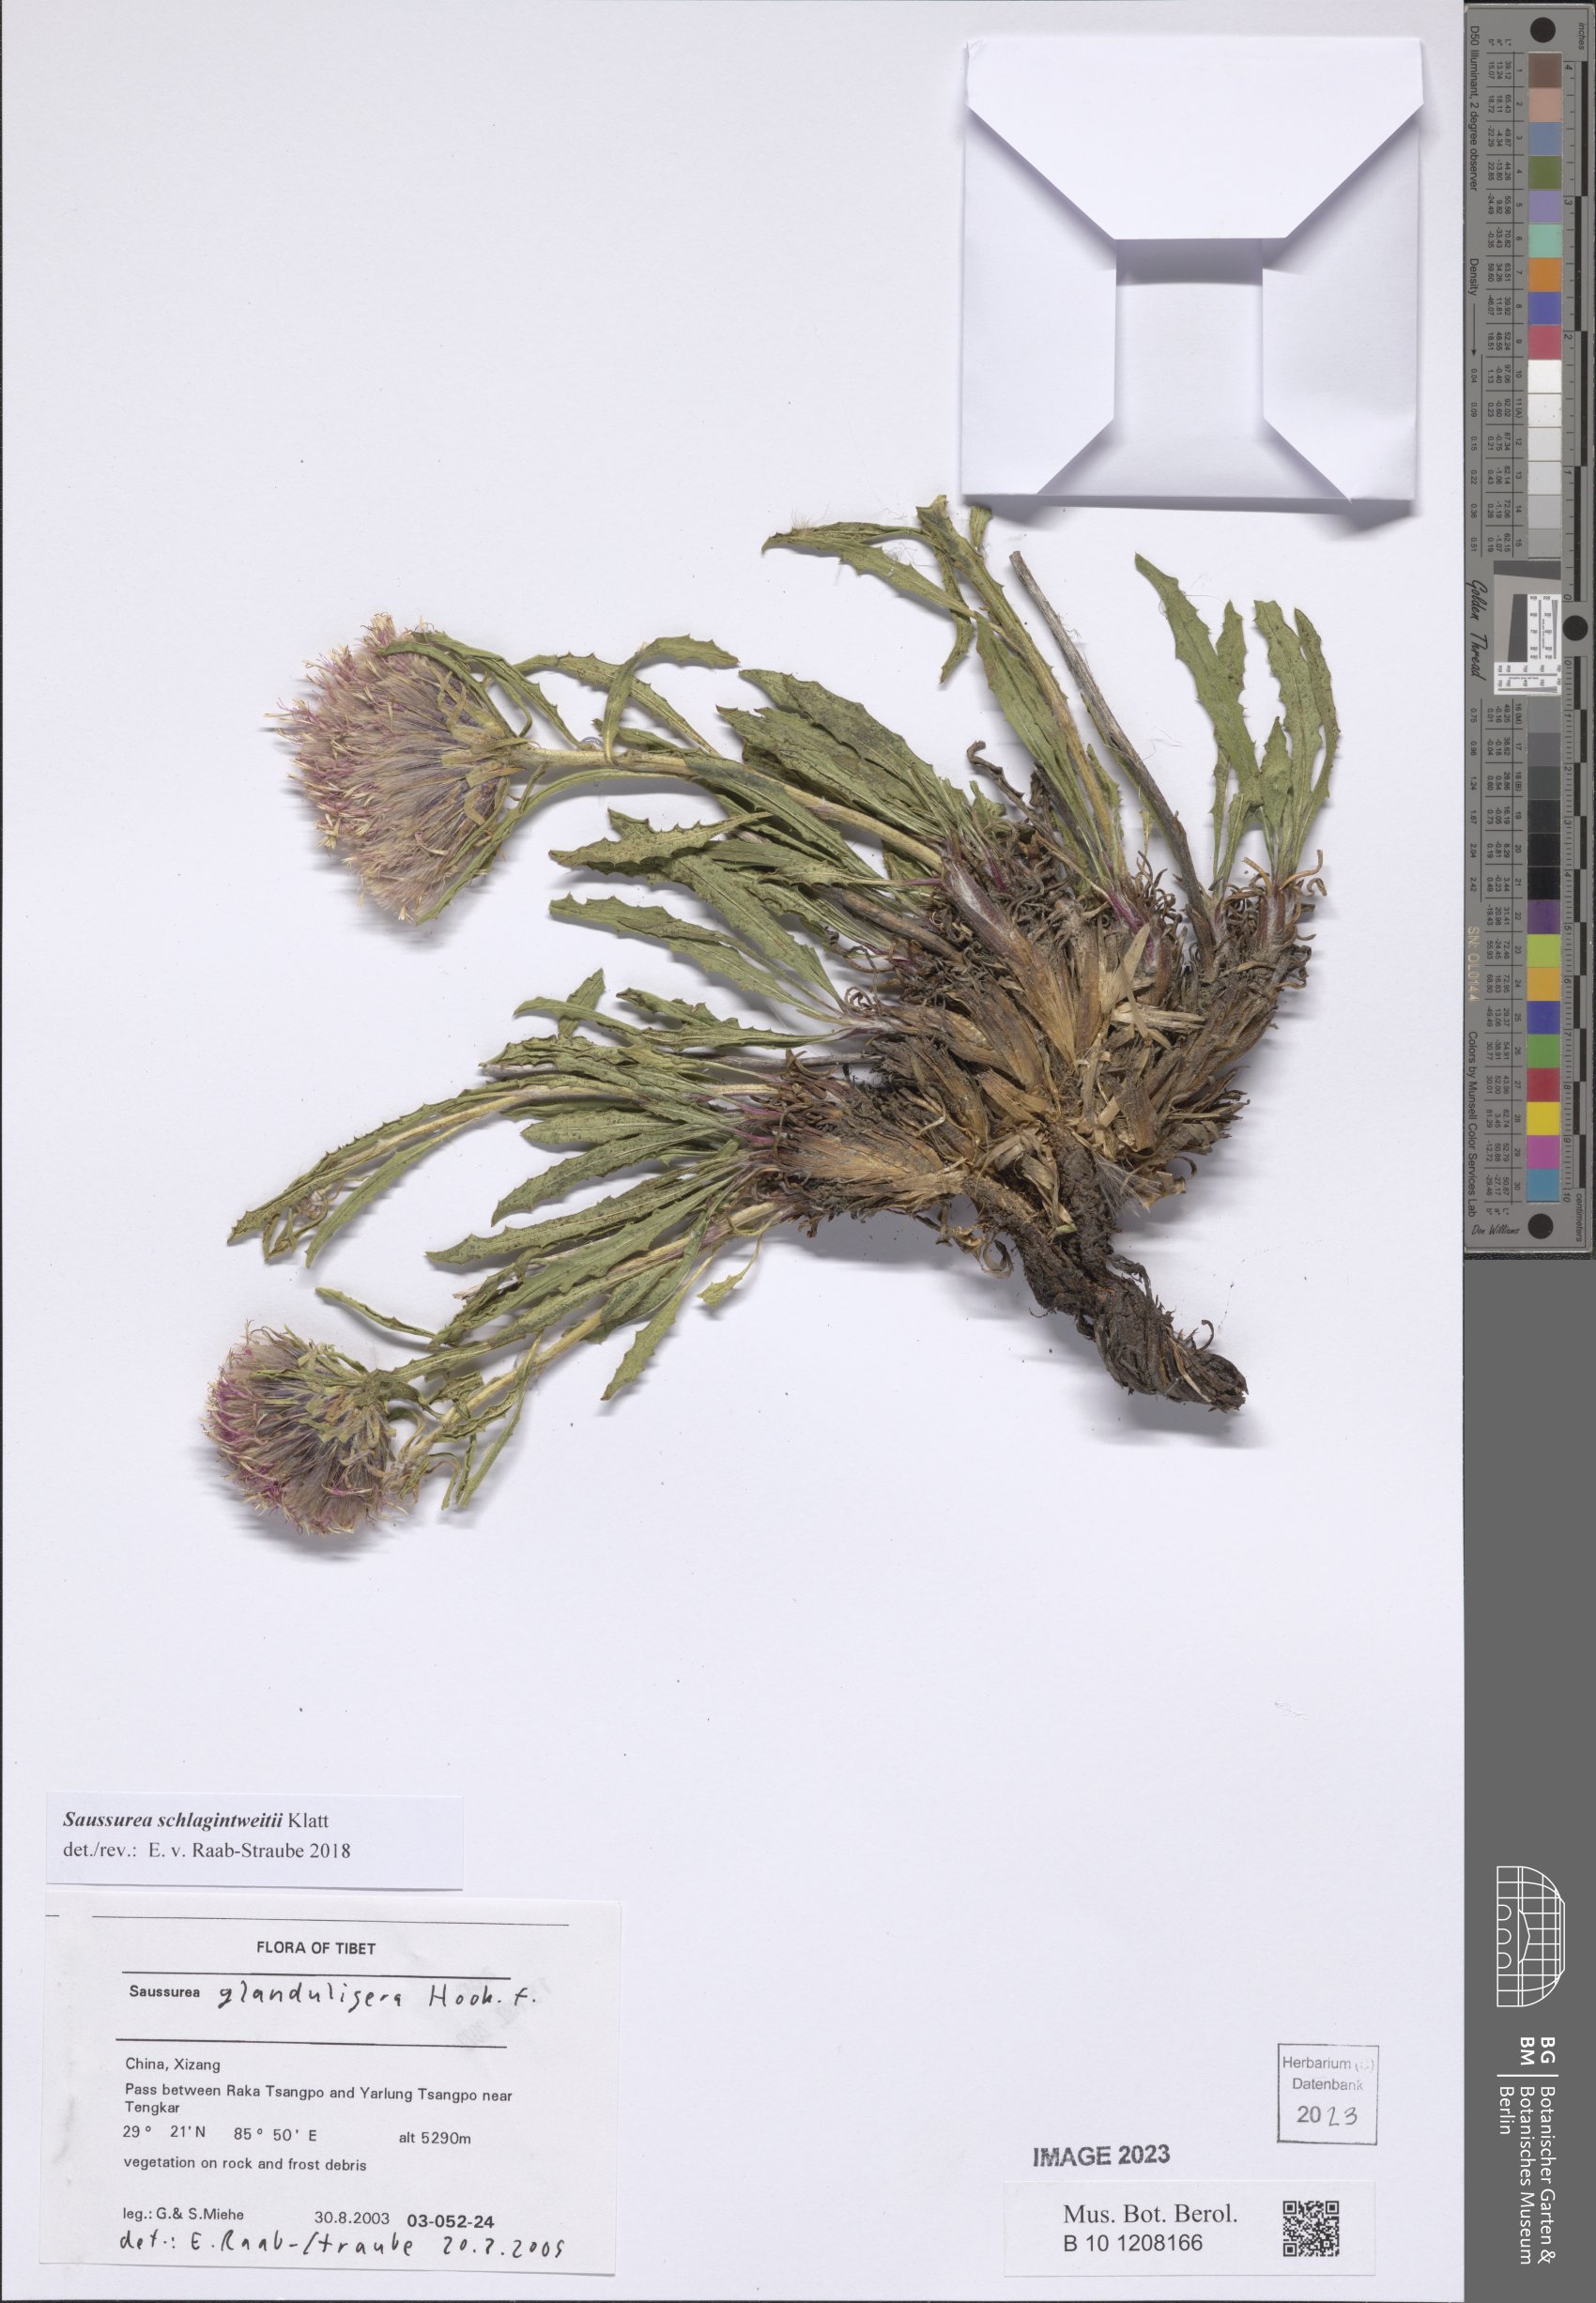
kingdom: Plantae
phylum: Tracheophyta
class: Magnoliopsida
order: Asterales
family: Asteraceae
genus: Saussurea
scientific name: Saussurea schlagintweitii
